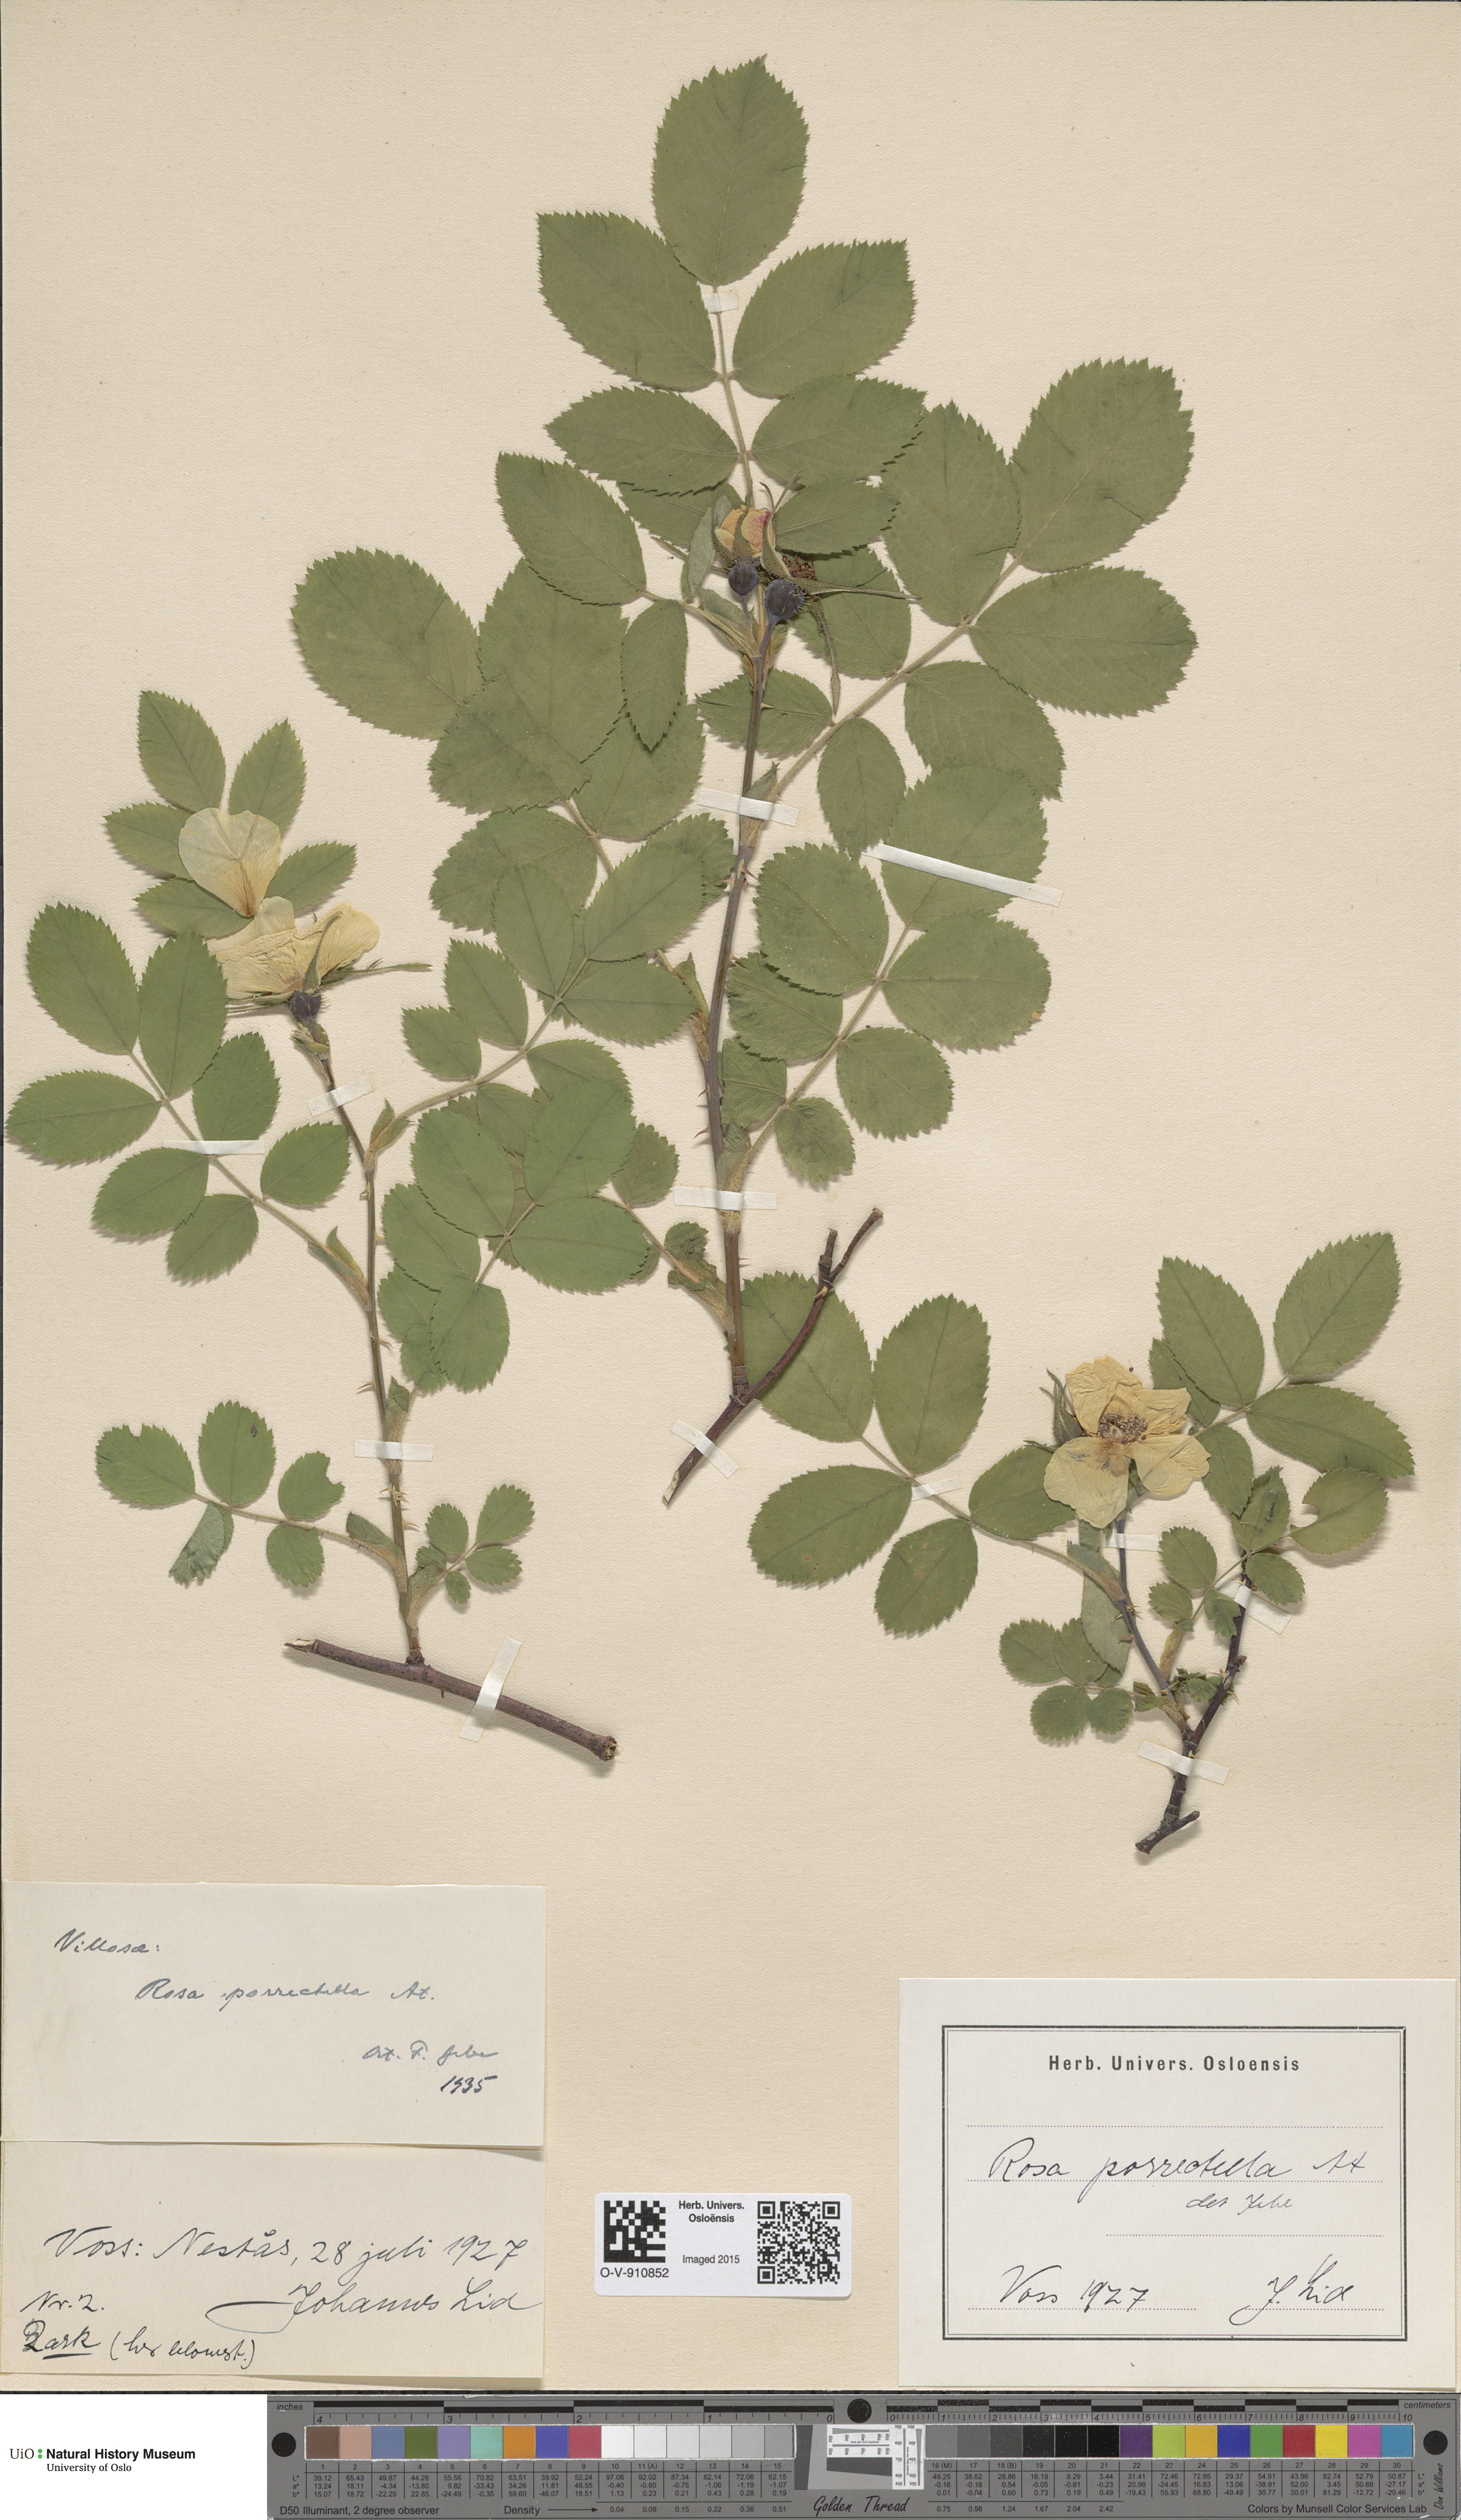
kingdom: Plantae
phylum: Tracheophyta
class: Magnoliopsida
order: Rosales
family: Rosaceae
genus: Rosa
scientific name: Rosa mollis
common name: Rose
